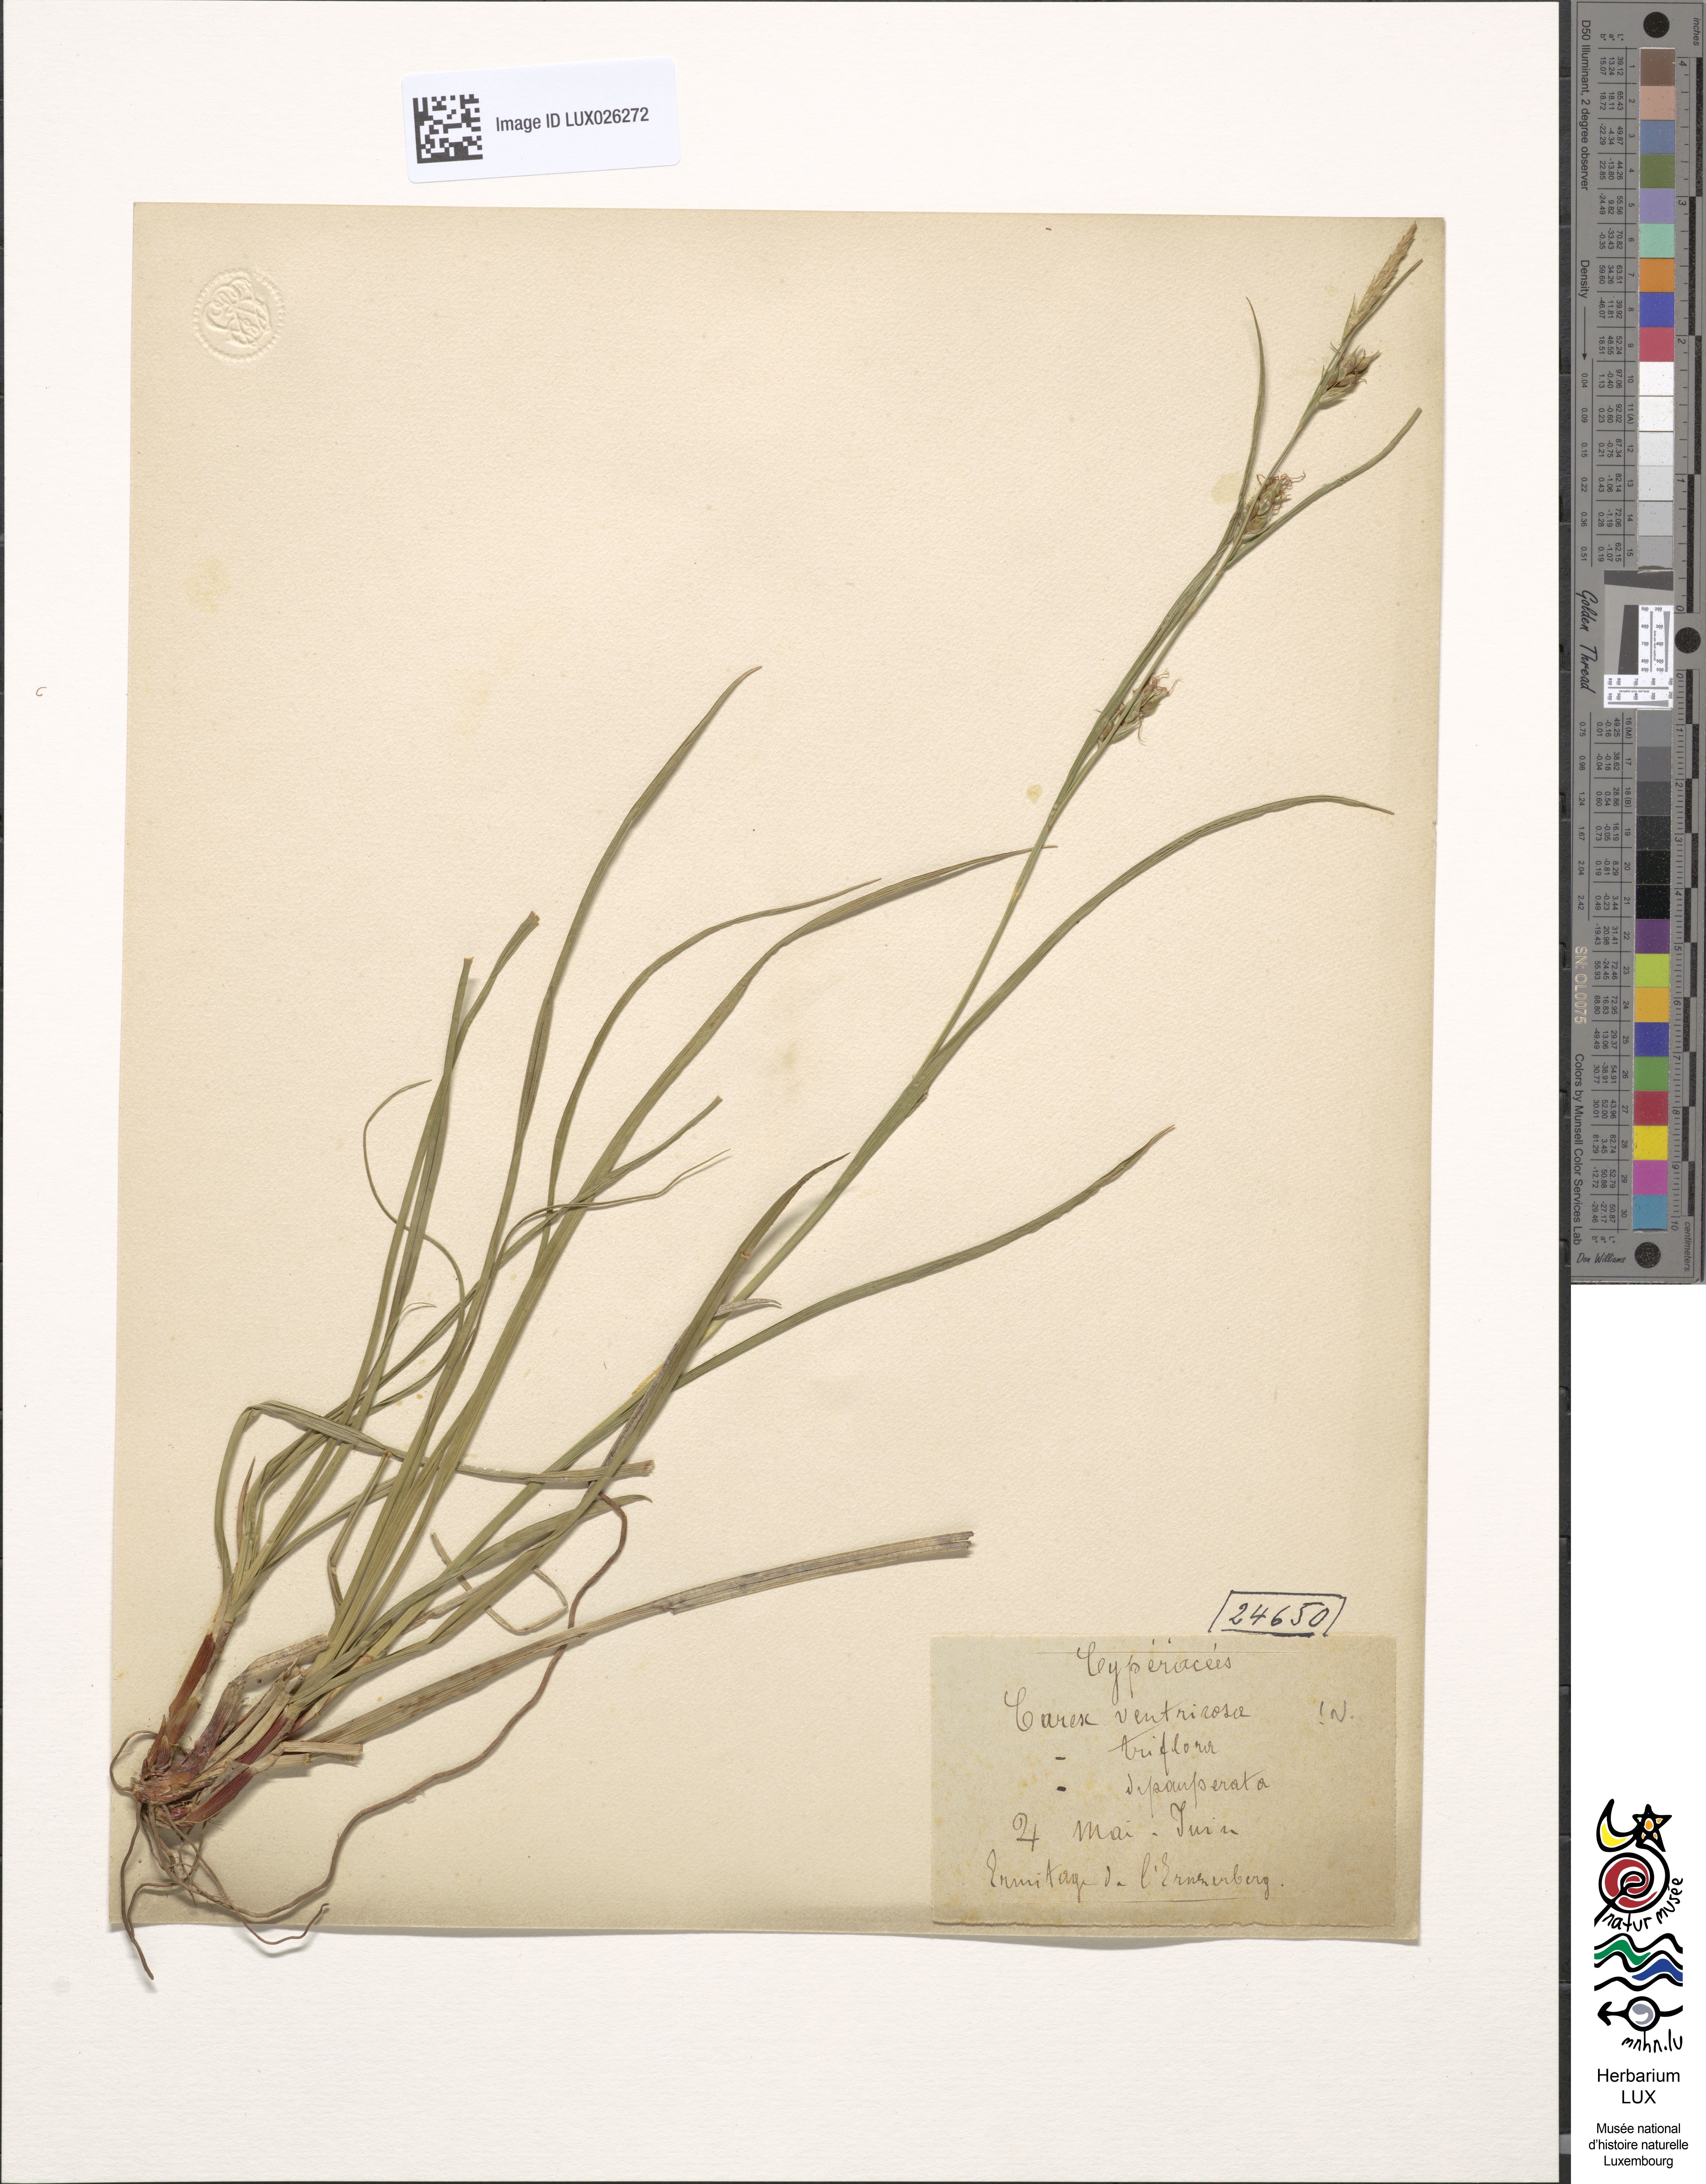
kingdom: Plantae
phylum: Tracheophyta
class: Liliopsida
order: Poales
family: Cyperaceae
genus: Carex
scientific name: Carex depauperata
